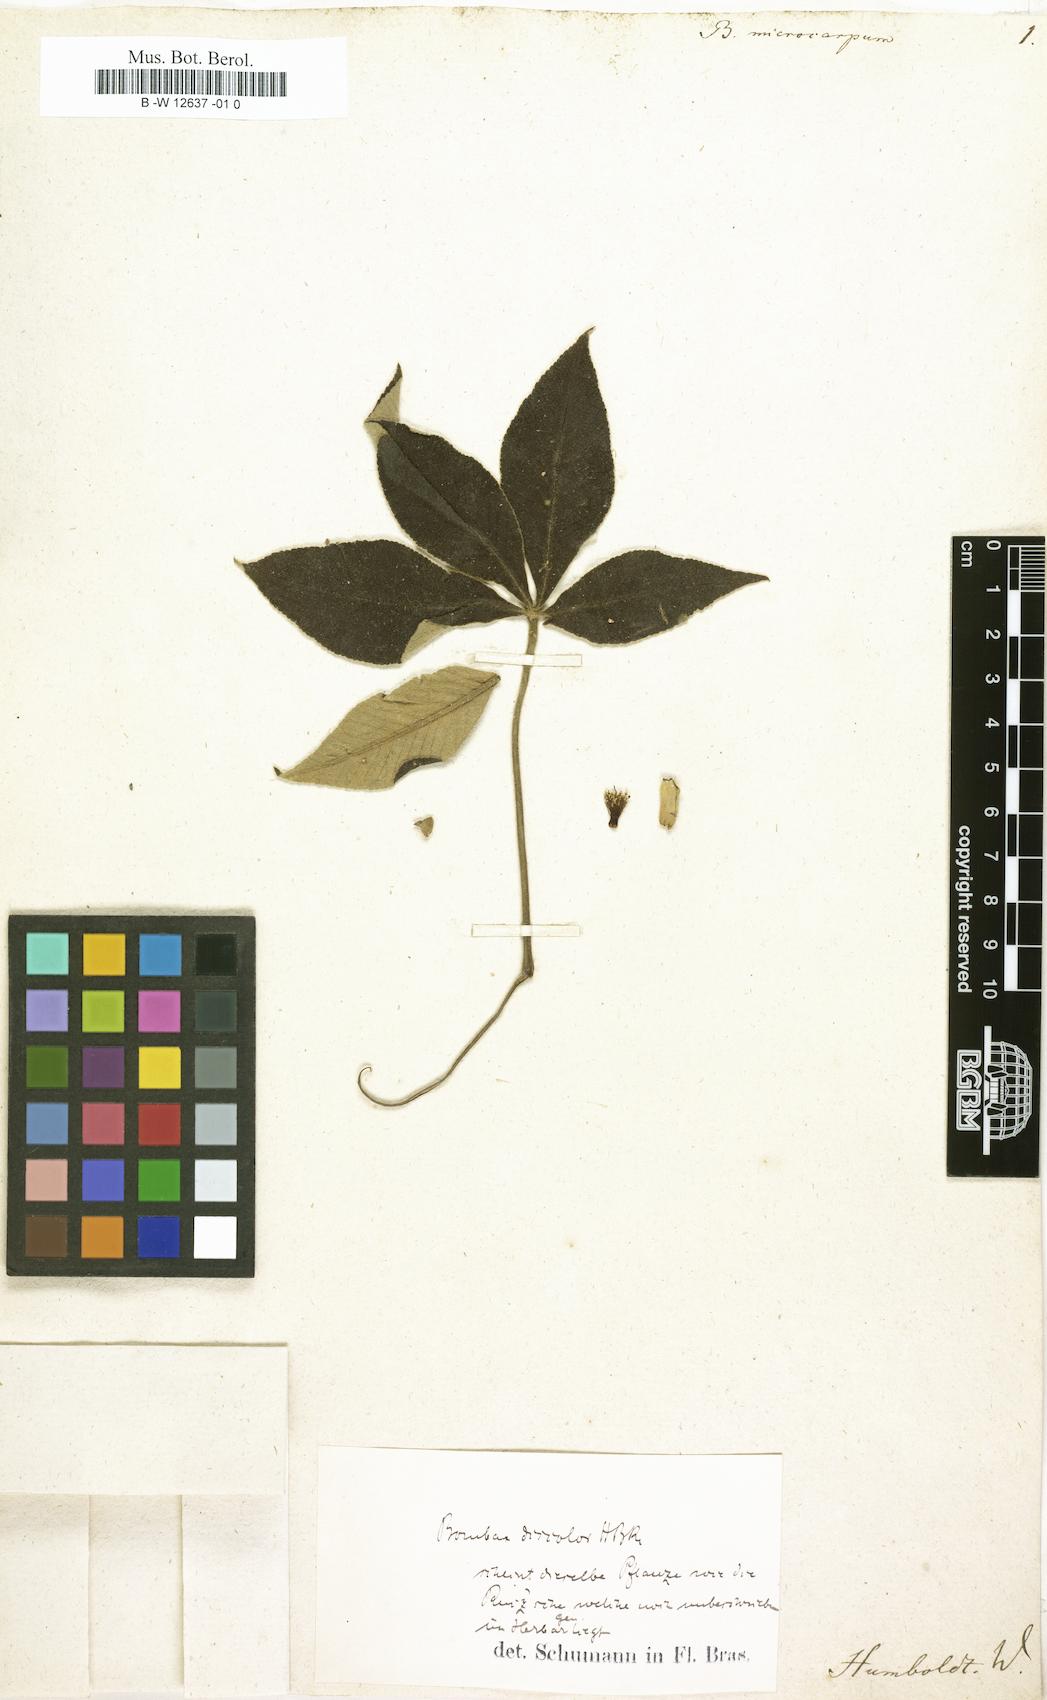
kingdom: Plantae
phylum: Tracheophyta
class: Magnoliopsida
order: Malvales
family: Malvaceae
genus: Pachira
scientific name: Pachira aquatica
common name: Provision-tree
